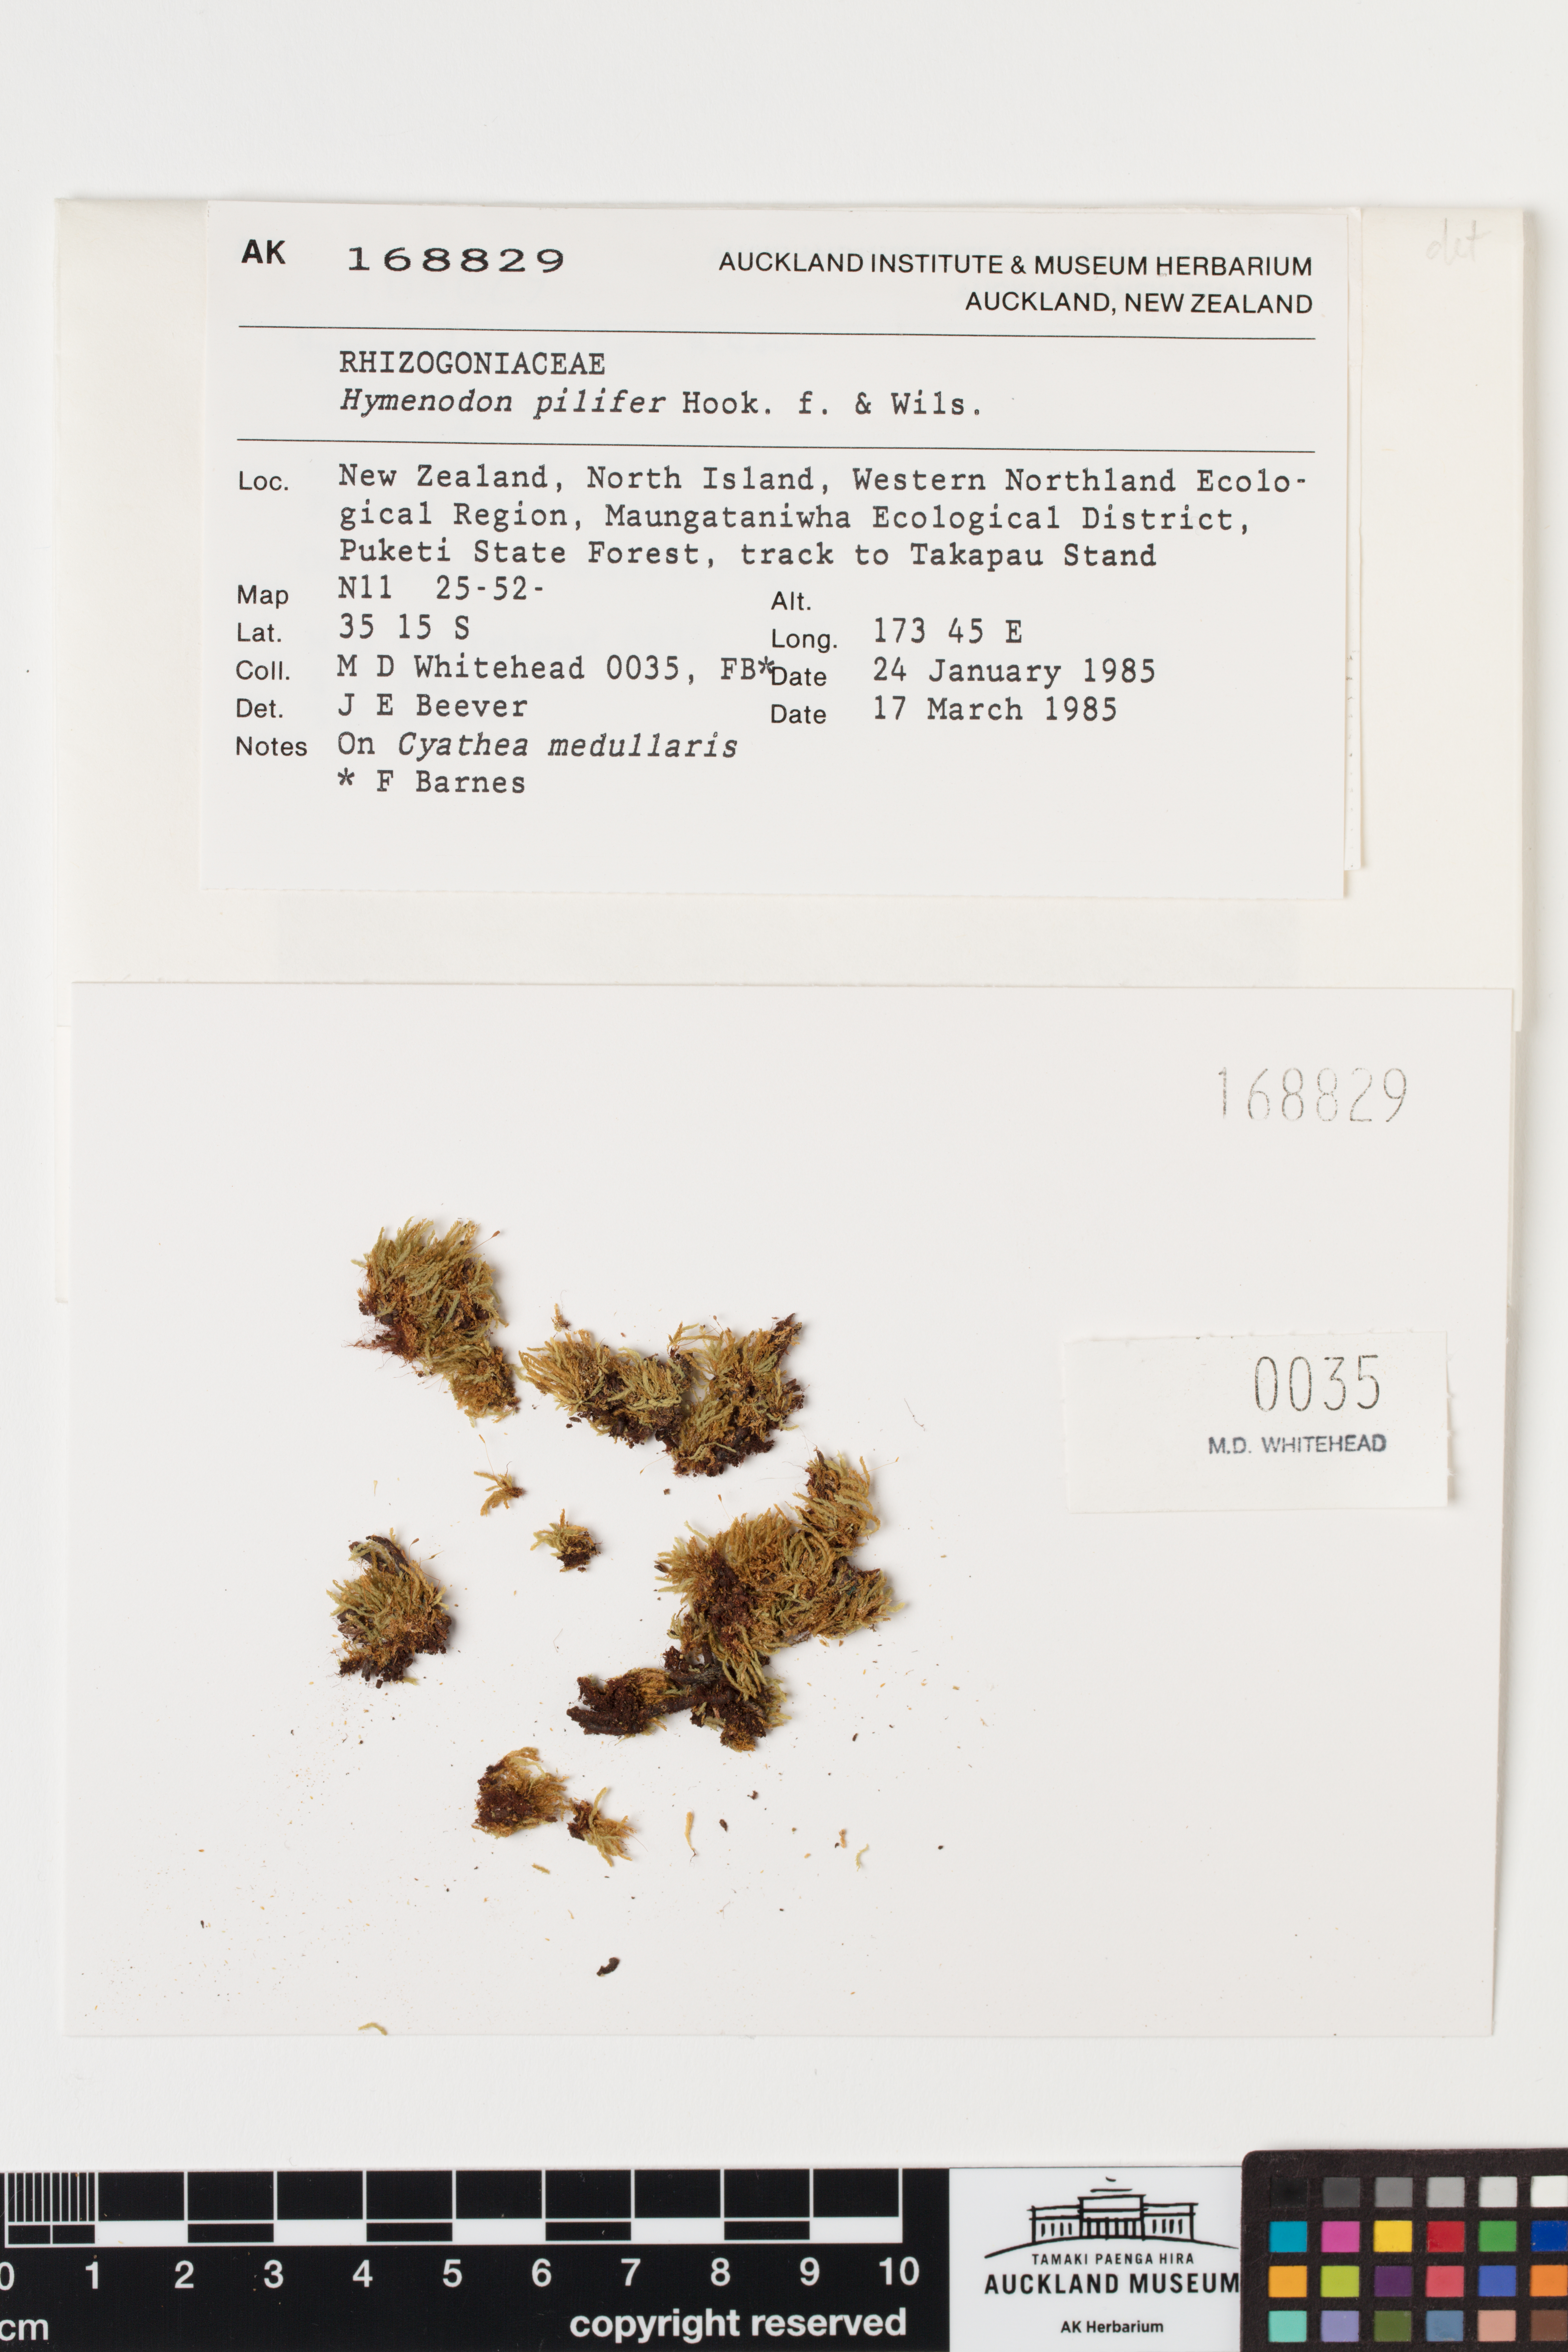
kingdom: Plantae
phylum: Bryophyta
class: Bryopsida
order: Orthodontiales
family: Orthodontiaceae
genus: Hymenodon
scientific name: Hymenodon pilifer
